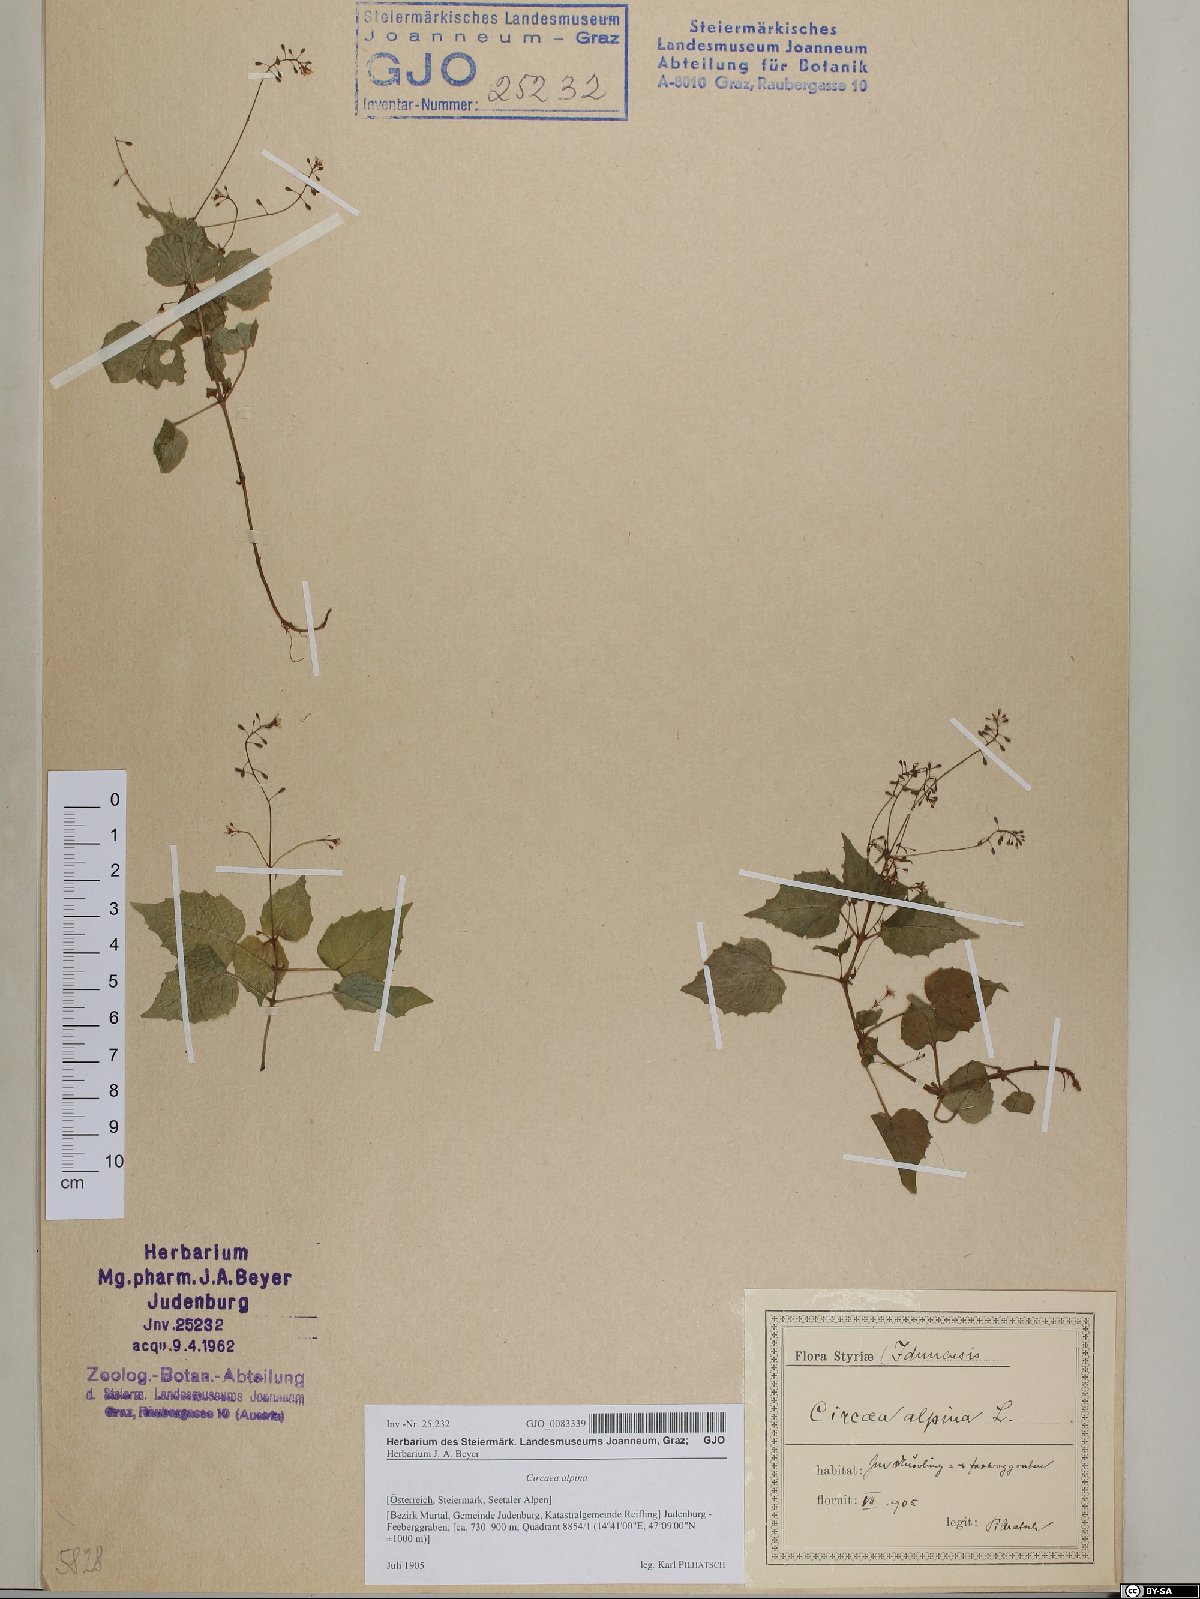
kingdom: Plantae
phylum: Tracheophyta
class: Magnoliopsida
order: Myrtales
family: Onagraceae
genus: Circaea
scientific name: Circaea alpina
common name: Alpine enchanter's-nightshade
